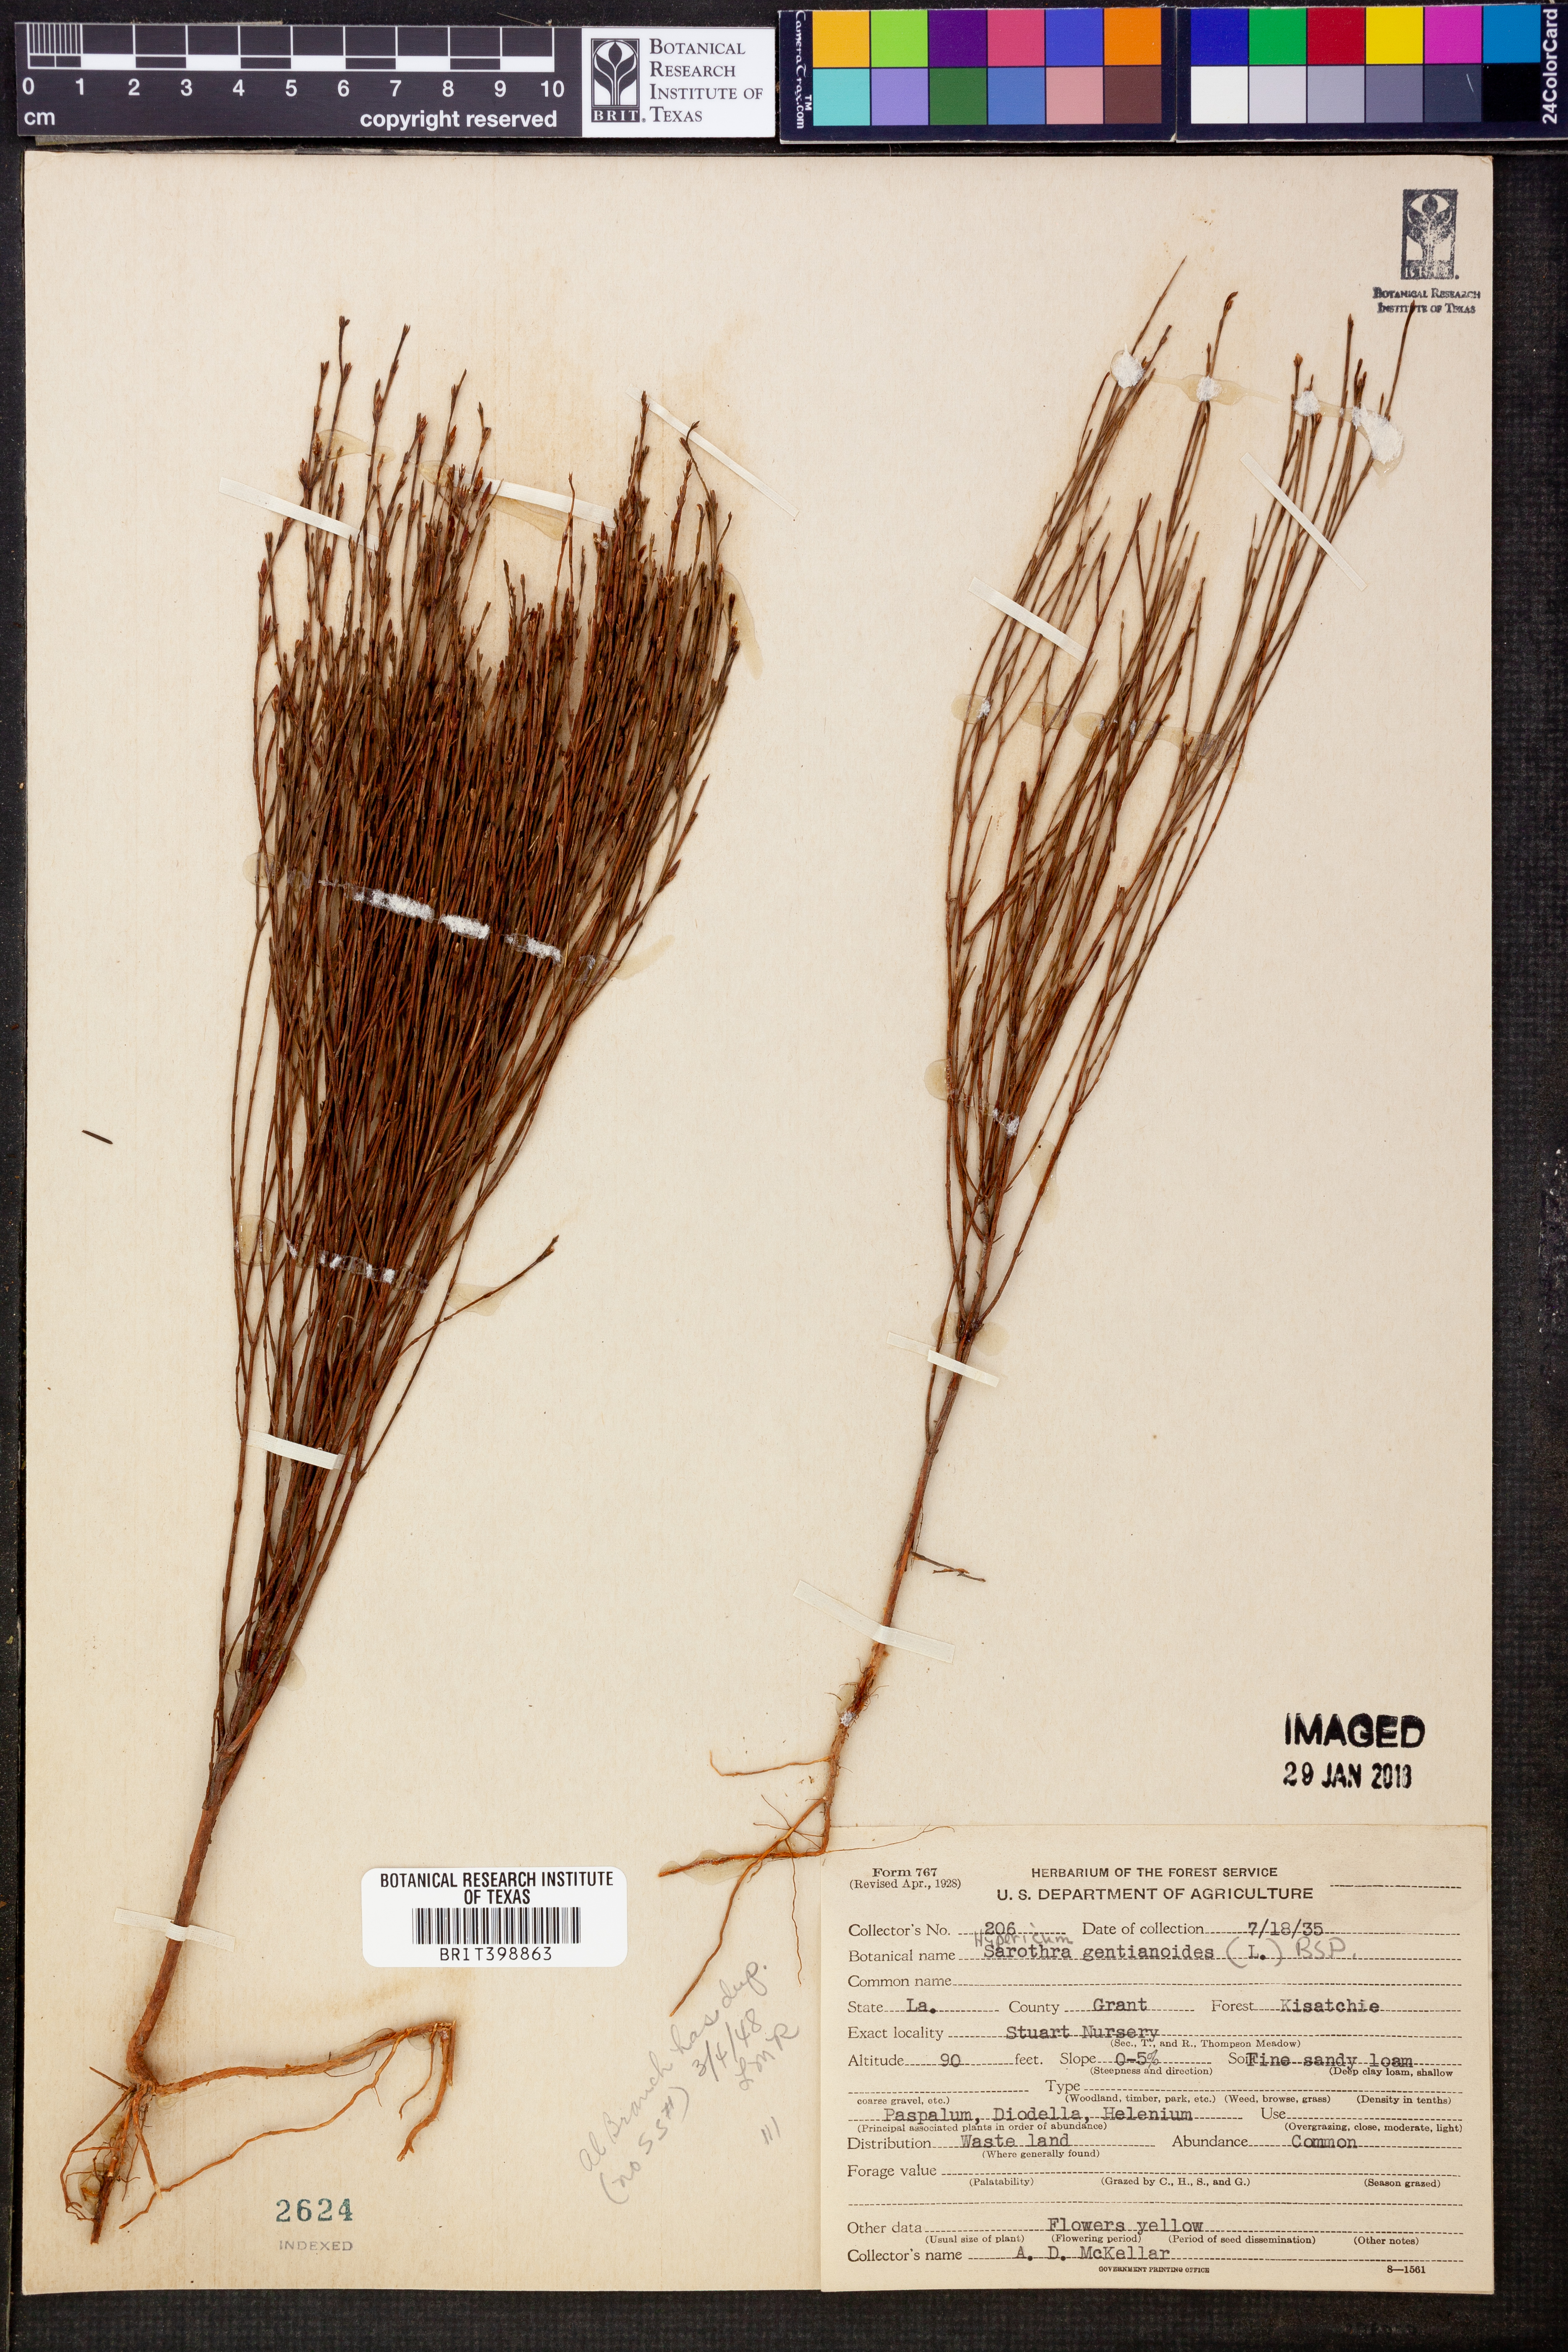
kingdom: Plantae
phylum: Tracheophyta
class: Magnoliopsida
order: Malpighiales
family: Hypericaceae
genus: Hypericum
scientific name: Hypericum gentianoides
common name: Gentian-leaved st. john's-wort
